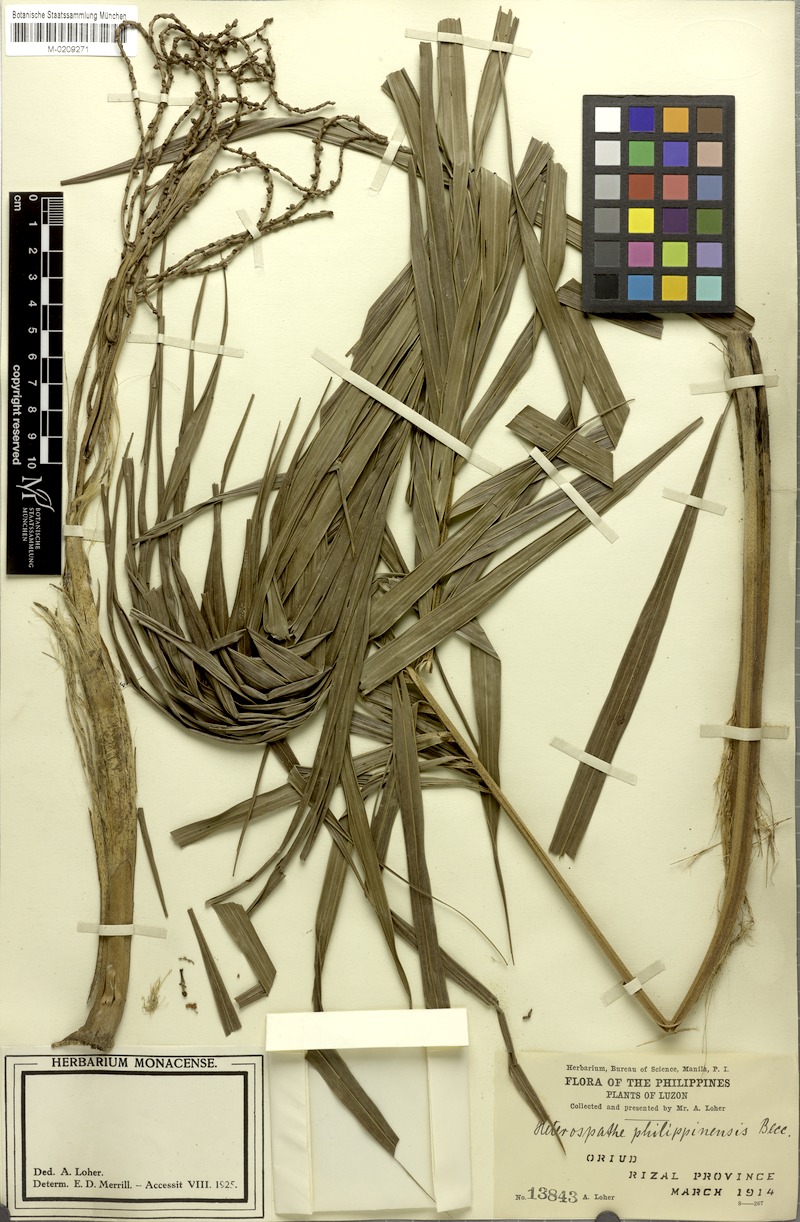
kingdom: Plantae
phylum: Tracheophyta
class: Liliopsida
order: Arecales
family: Arecaceae
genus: Heterospathe
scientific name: Heterospathe philippinensis
